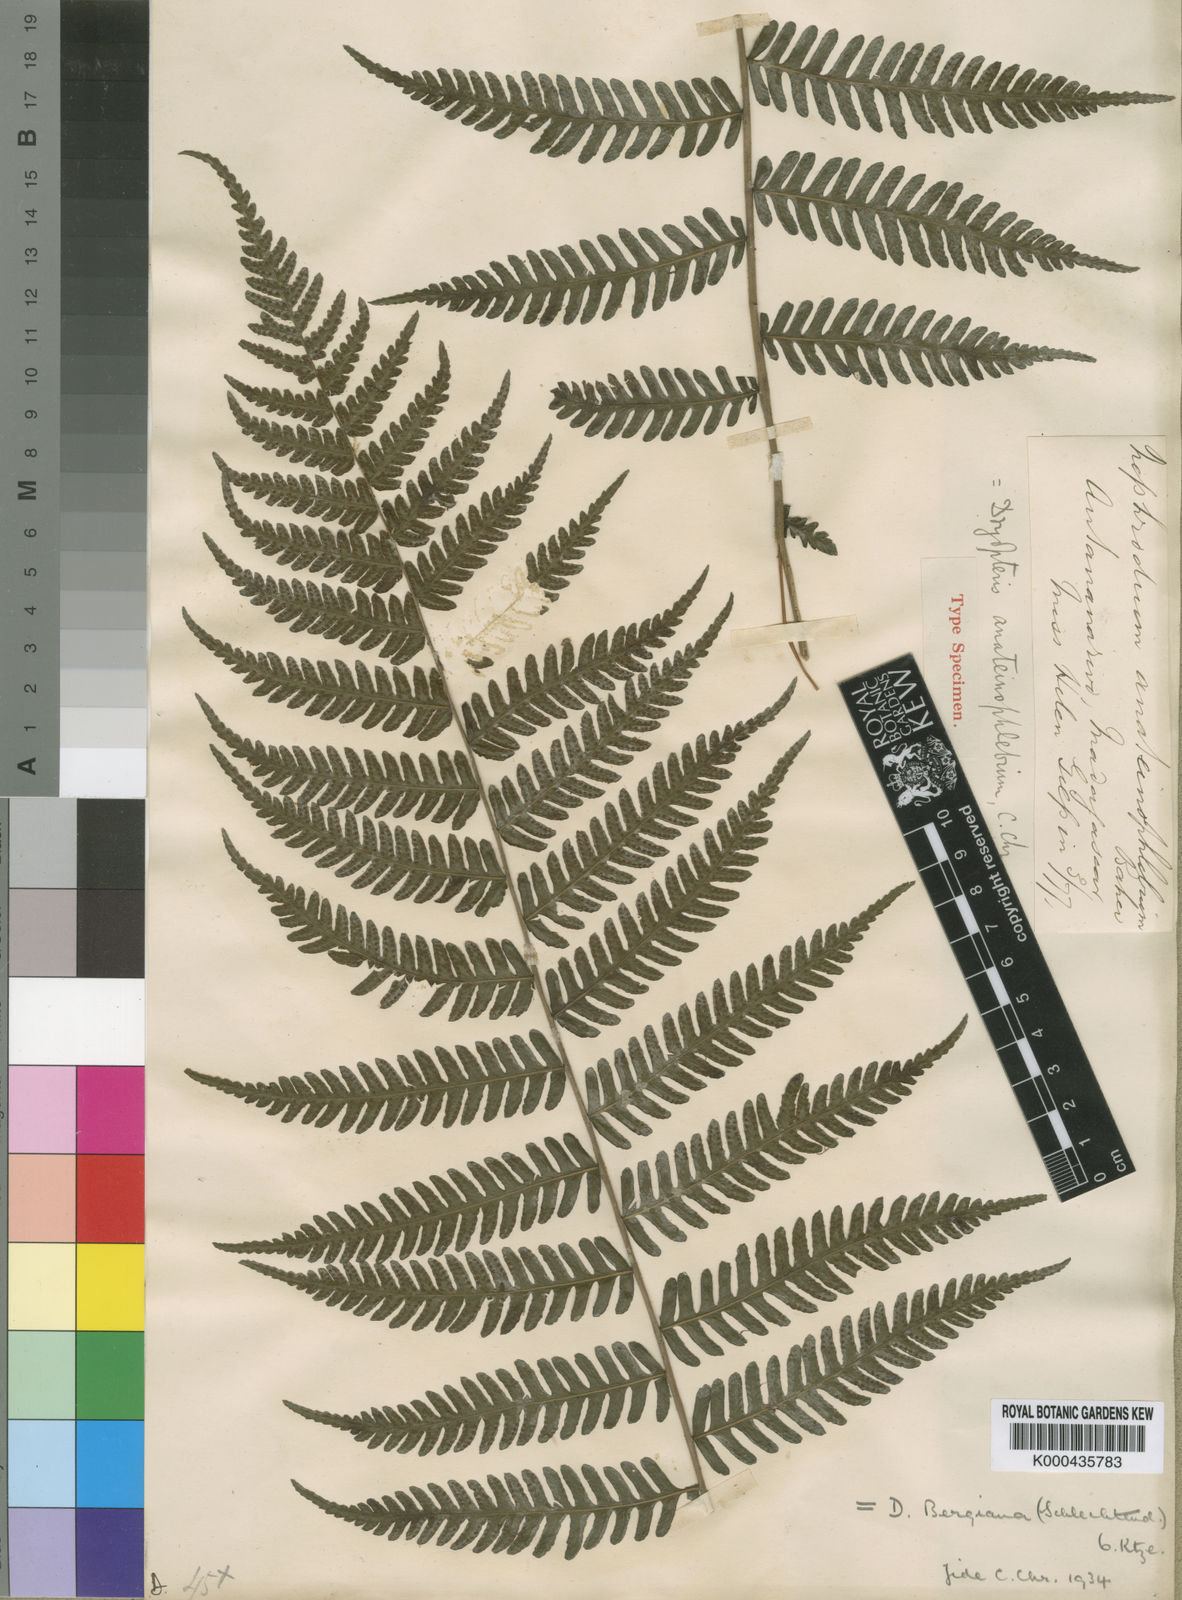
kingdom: Plantae
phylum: Tracheophyta
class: Polypodiopsida
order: Polypodiales
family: Thelypteridaceae
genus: Amauropelta
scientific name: Amauropelta bergiana
